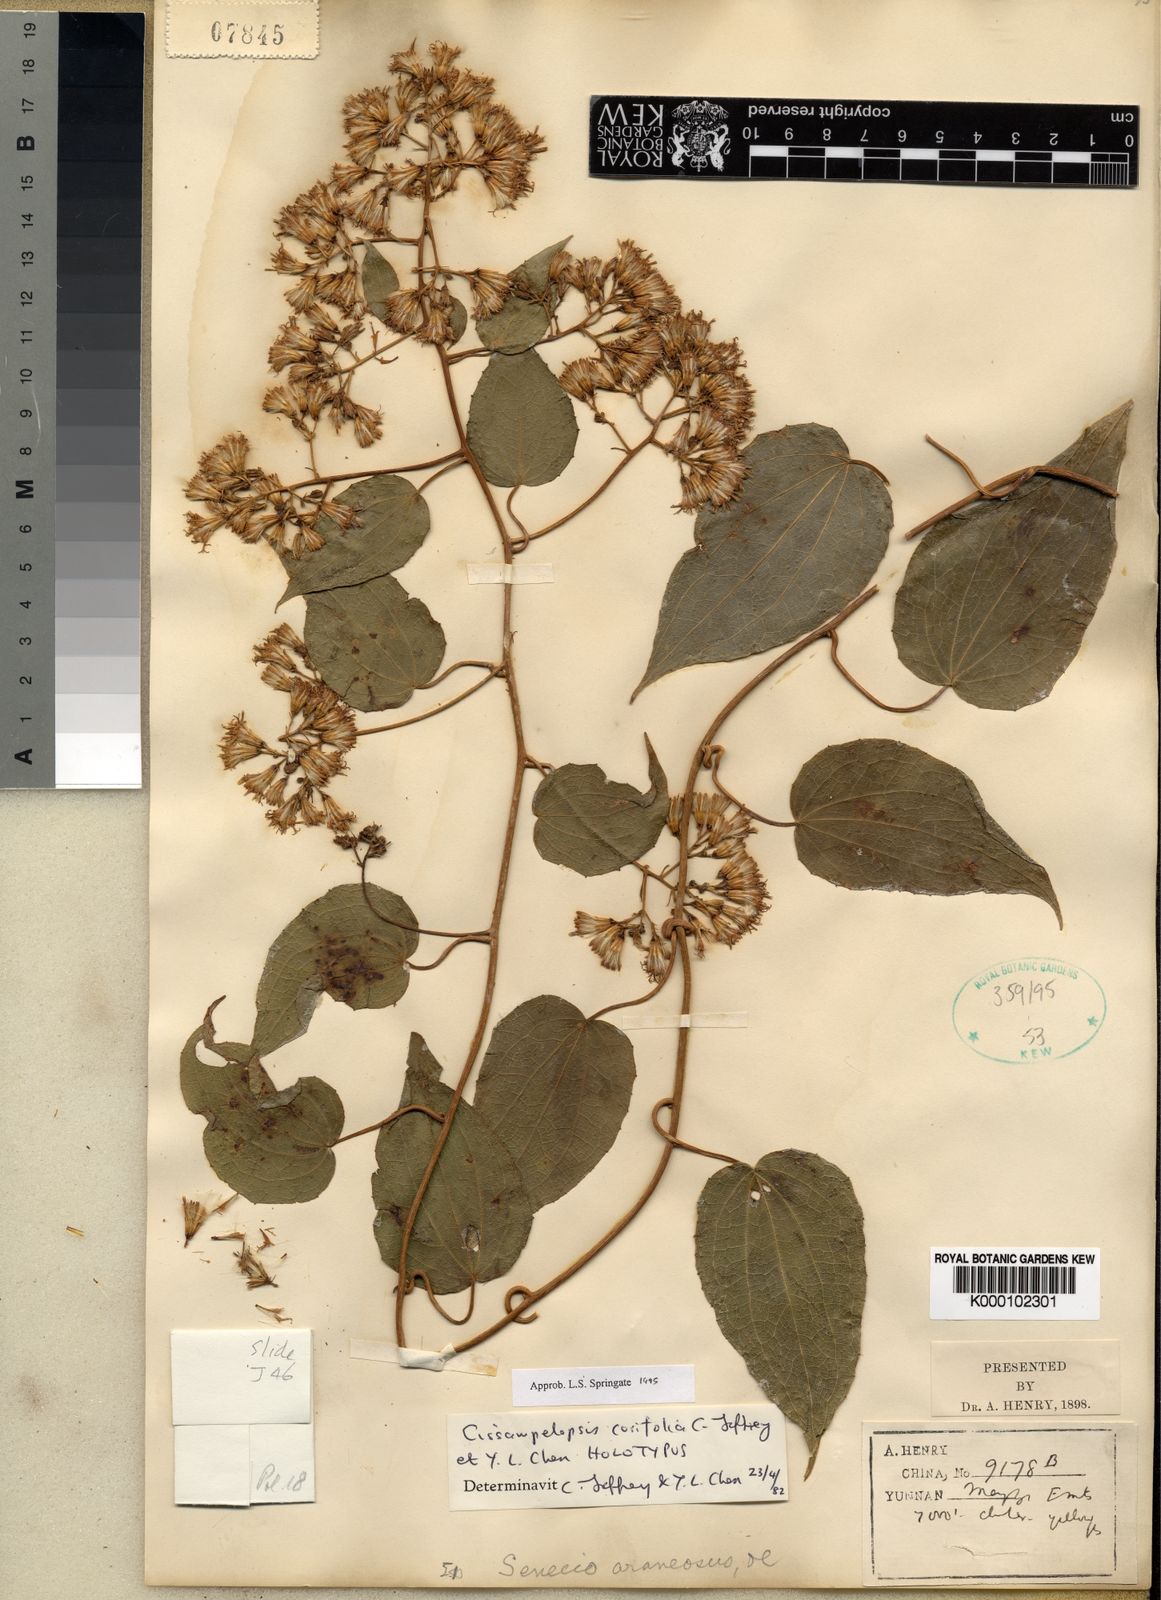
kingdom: Plantae
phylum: Tracheophyta
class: Magnoliopsida
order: Asterales
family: Asteraceae
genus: Cissampelopsis
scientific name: Cissampelopsis corifolia
